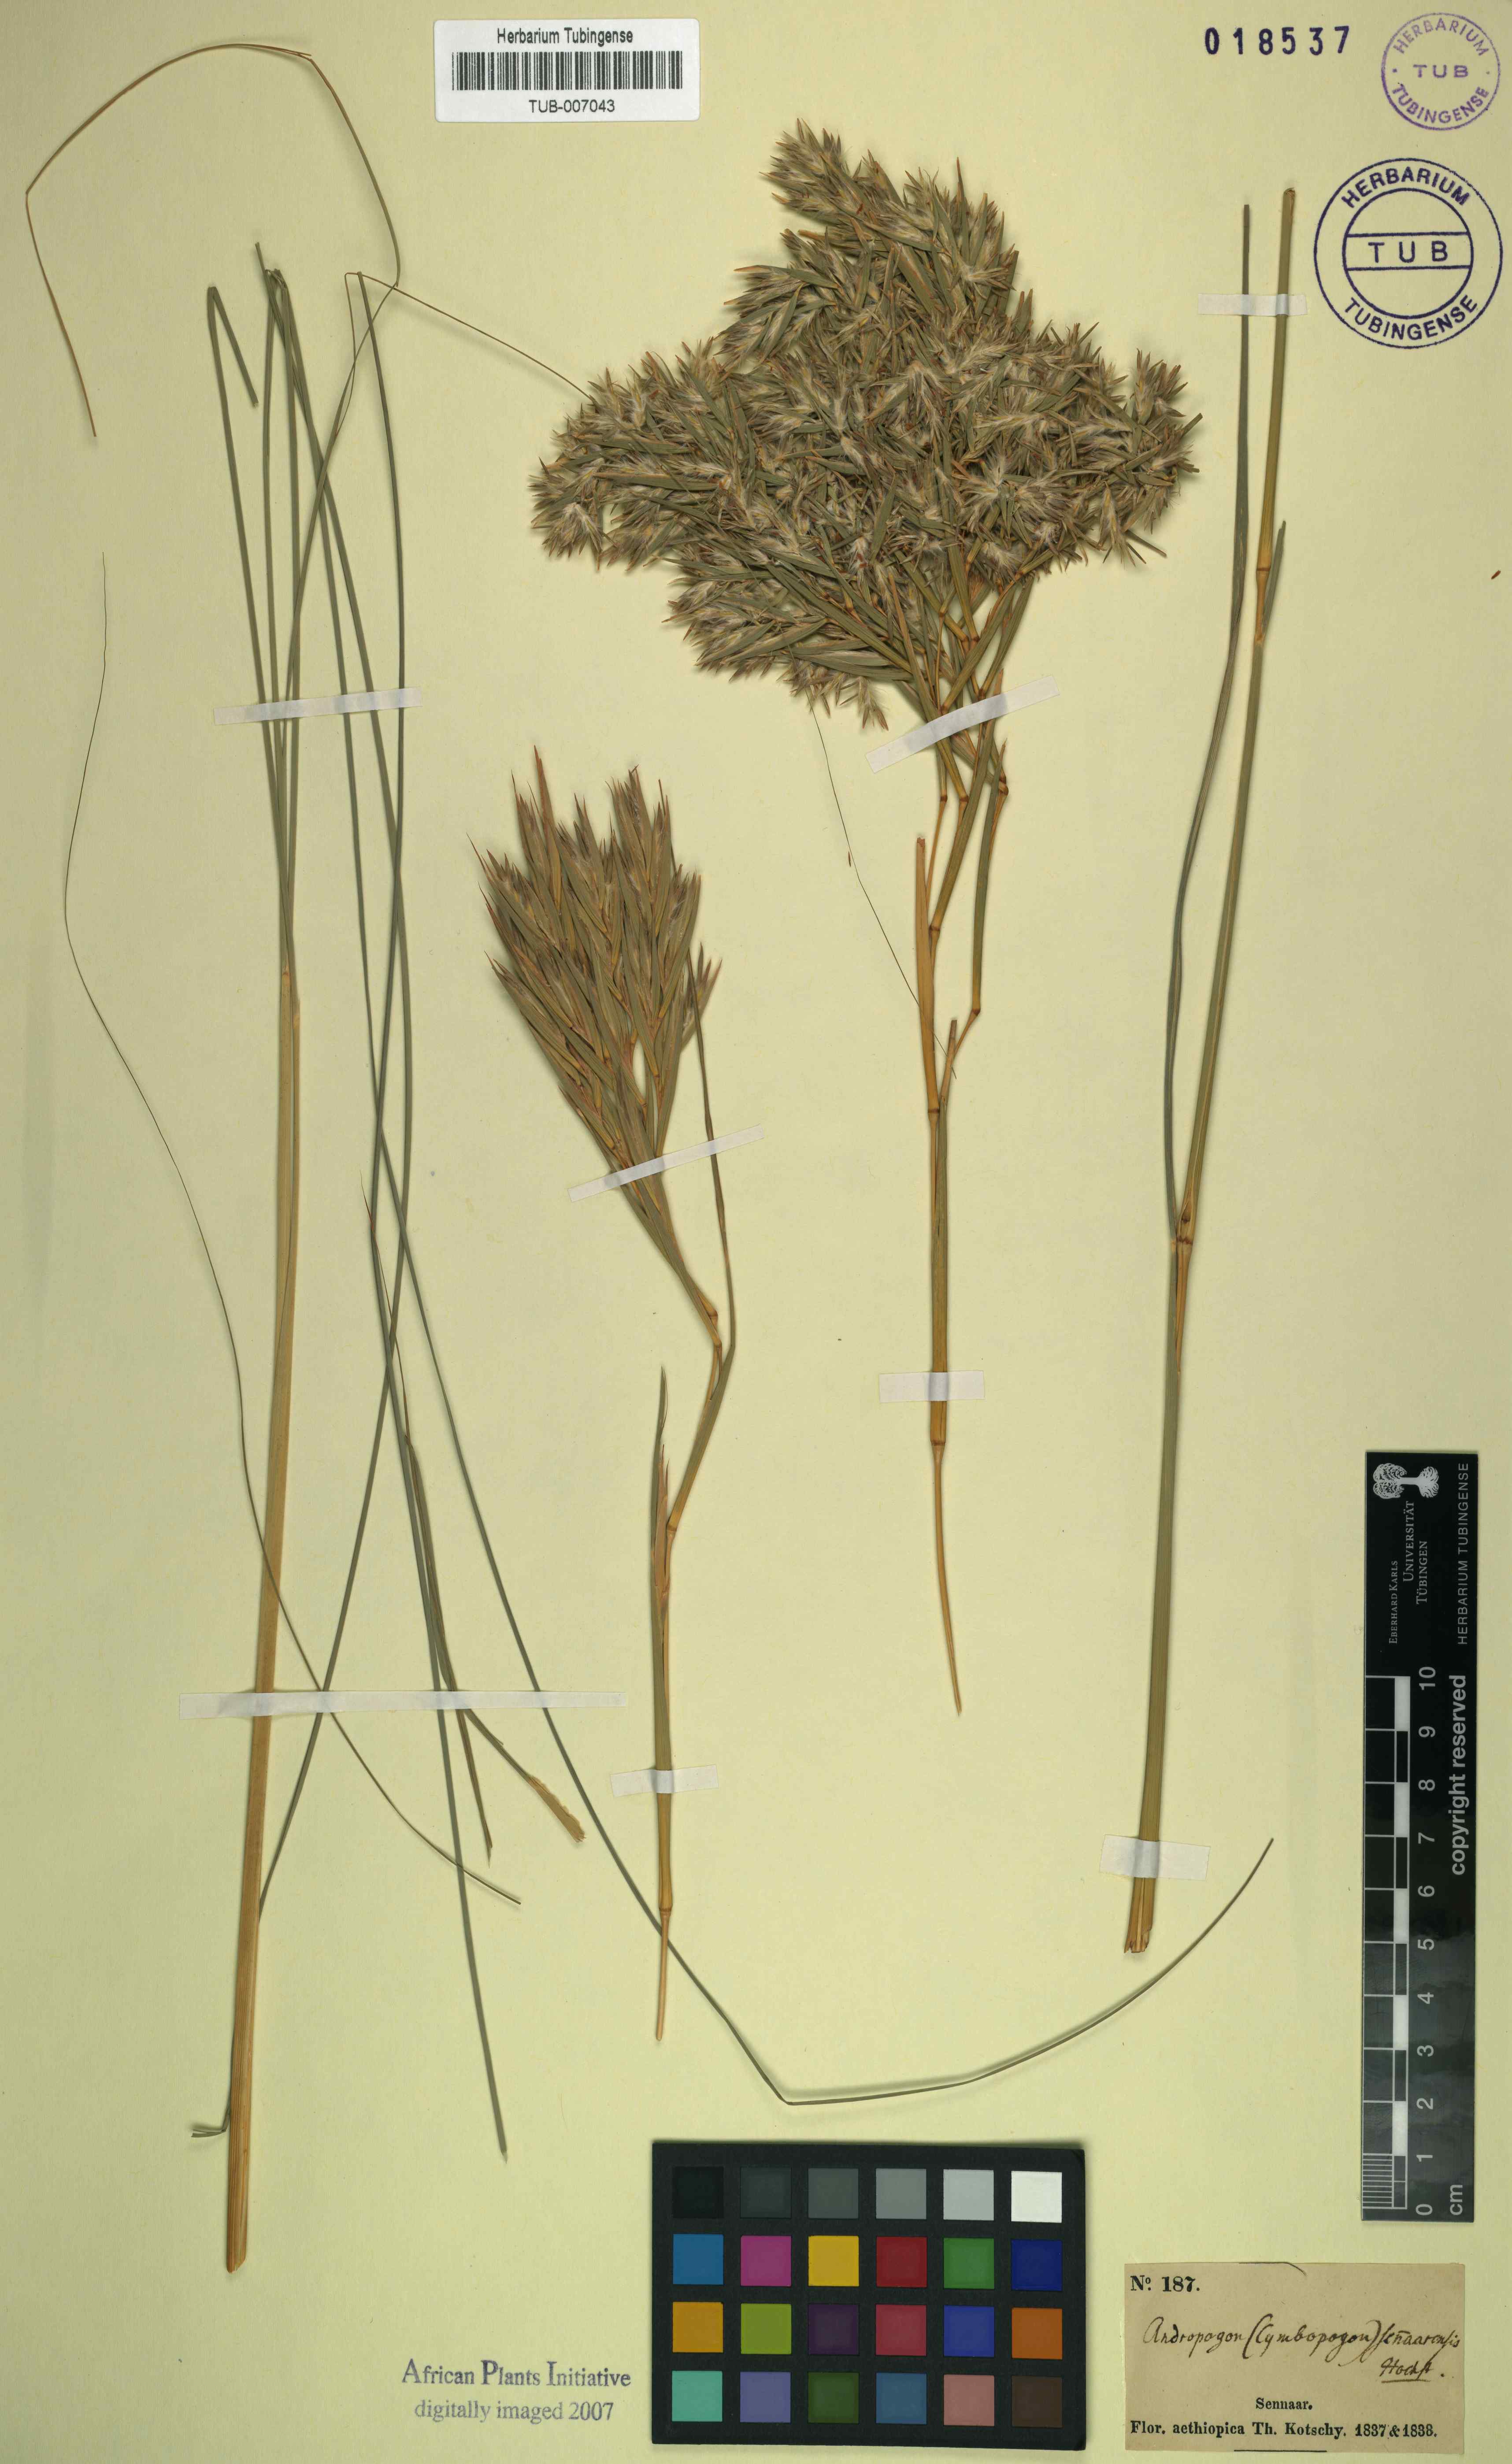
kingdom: Plantae
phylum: Tracheophyta
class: Liliopsida
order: Poales
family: Poaceae
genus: Cymbopogon
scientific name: Cymbopogon iwarancusa
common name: Iwarancusa grass
